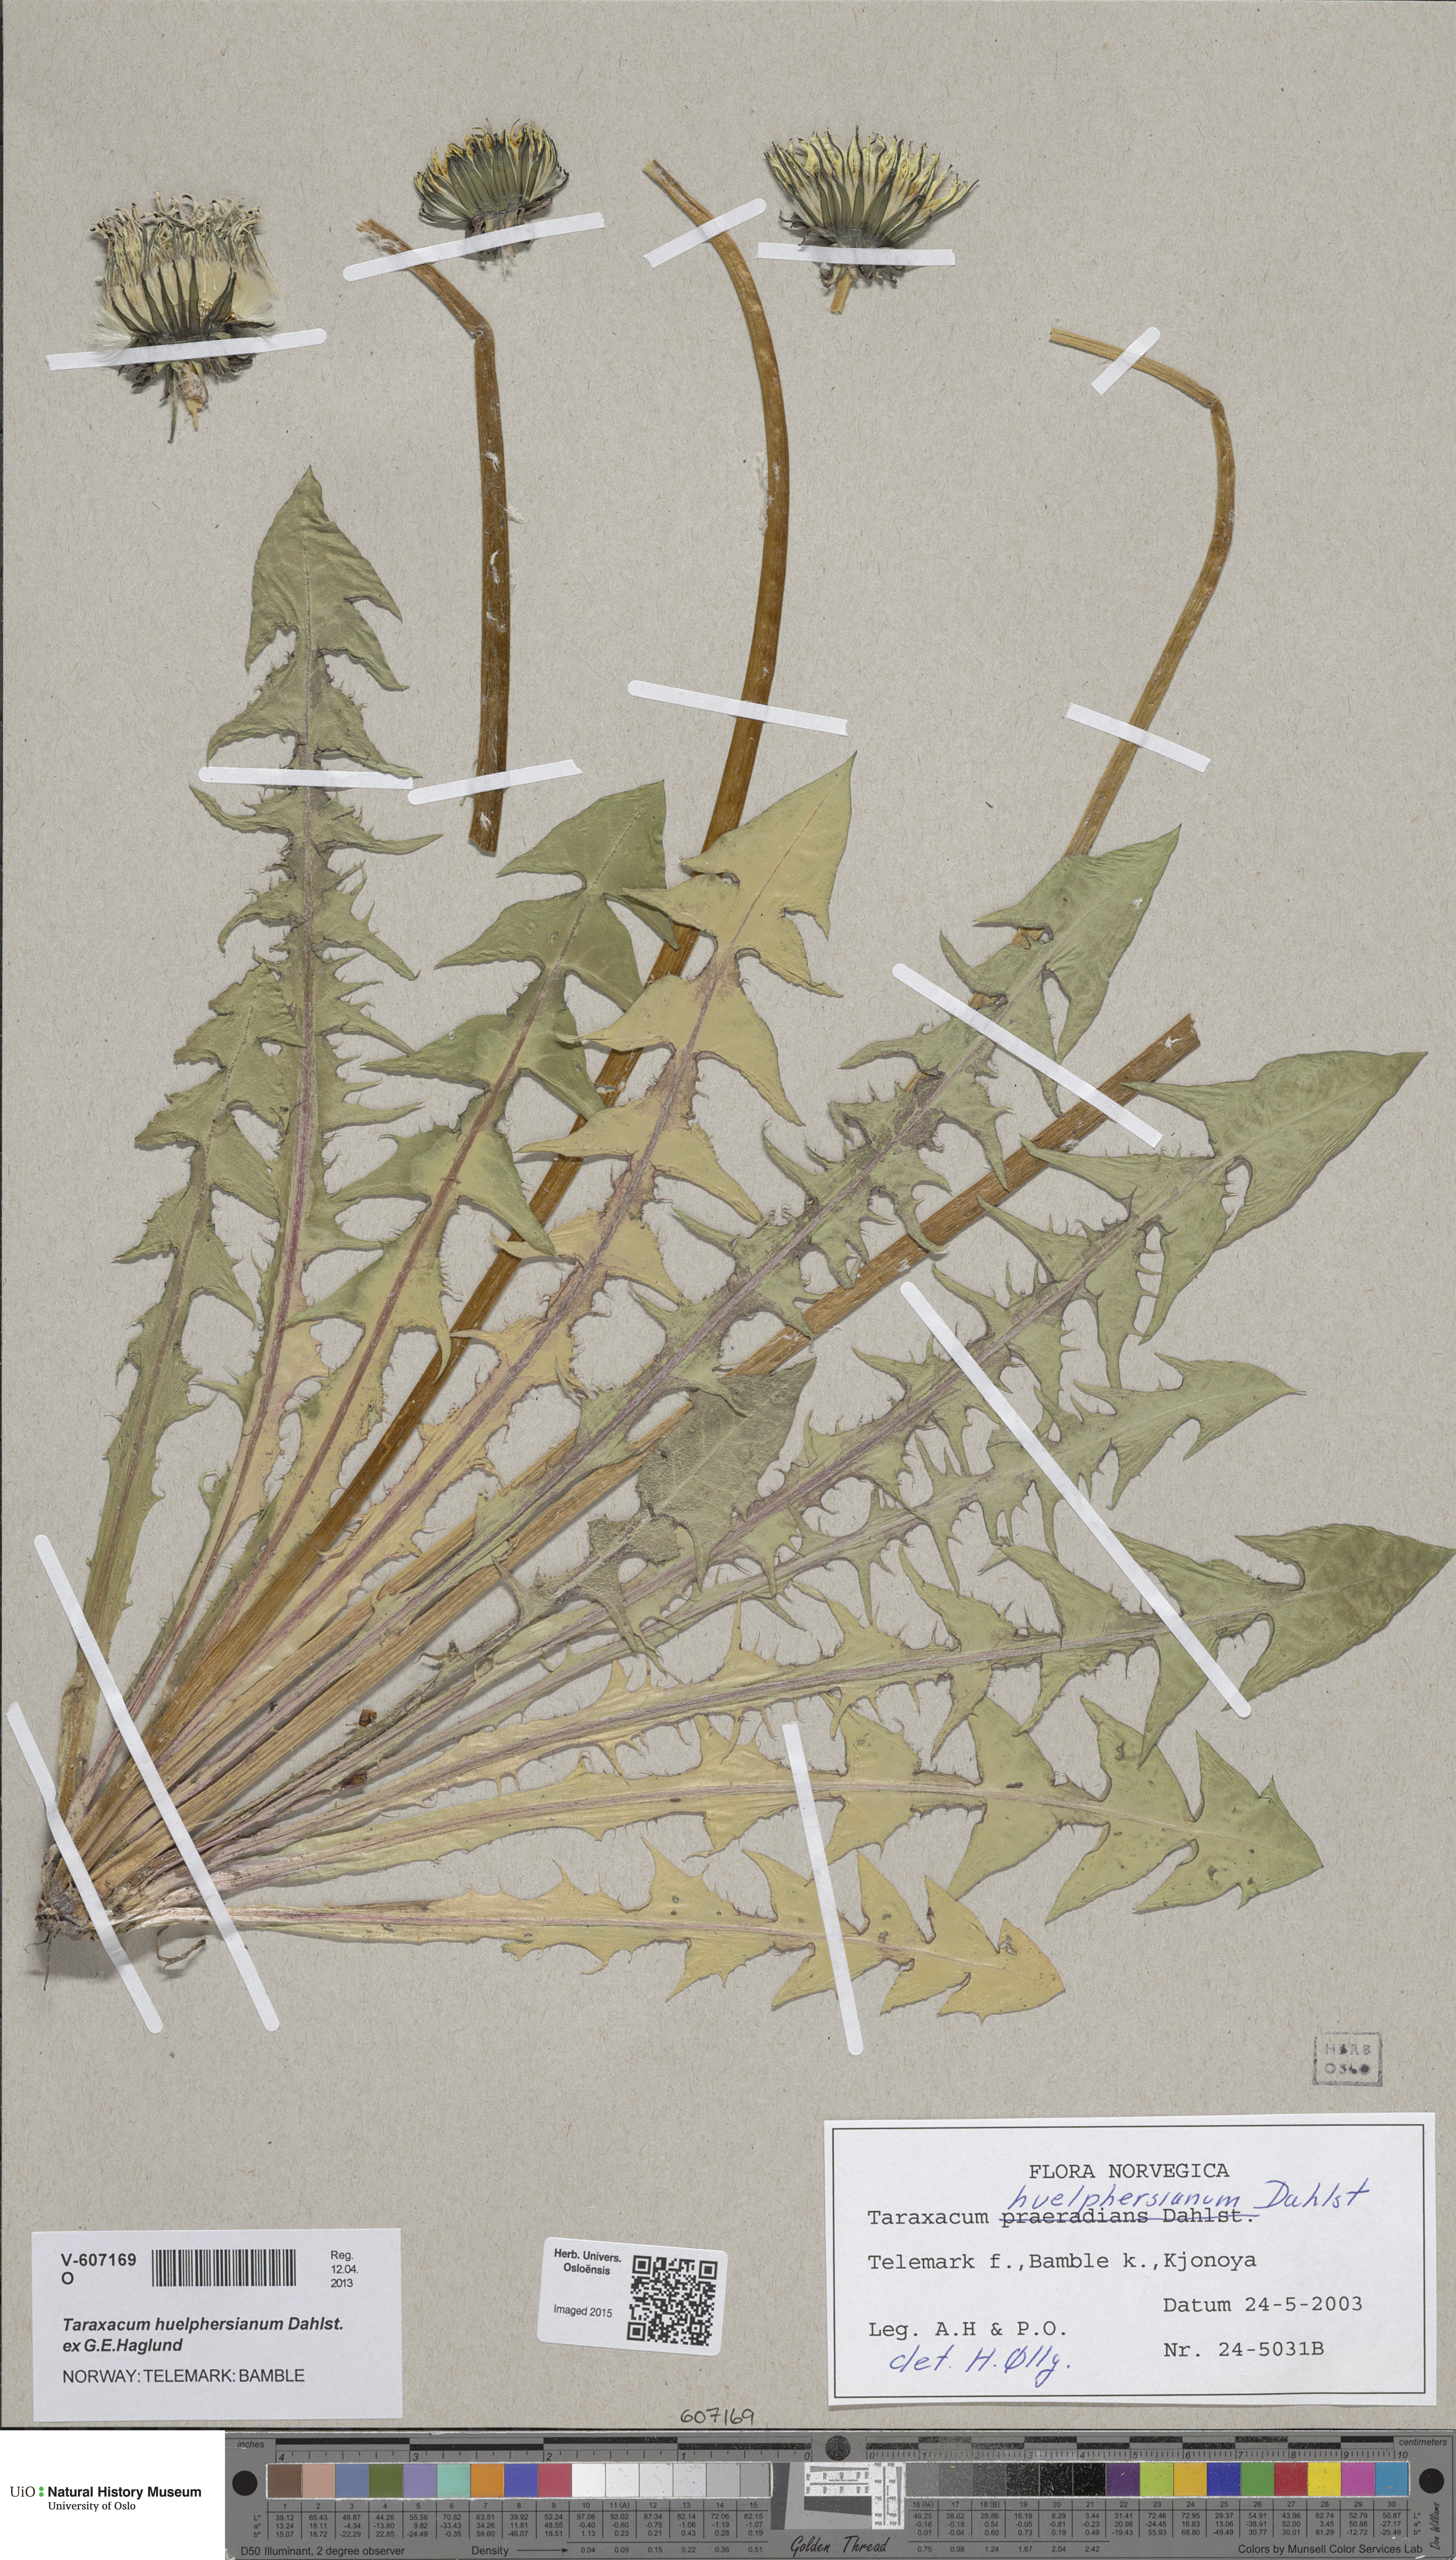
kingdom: Plantae
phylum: Tracheophyta
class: Magnoliopsida
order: Asterales
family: Asteraceae
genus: Taraxacum
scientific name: Taraxacum huelphersianum
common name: Hülphers's dandelion
